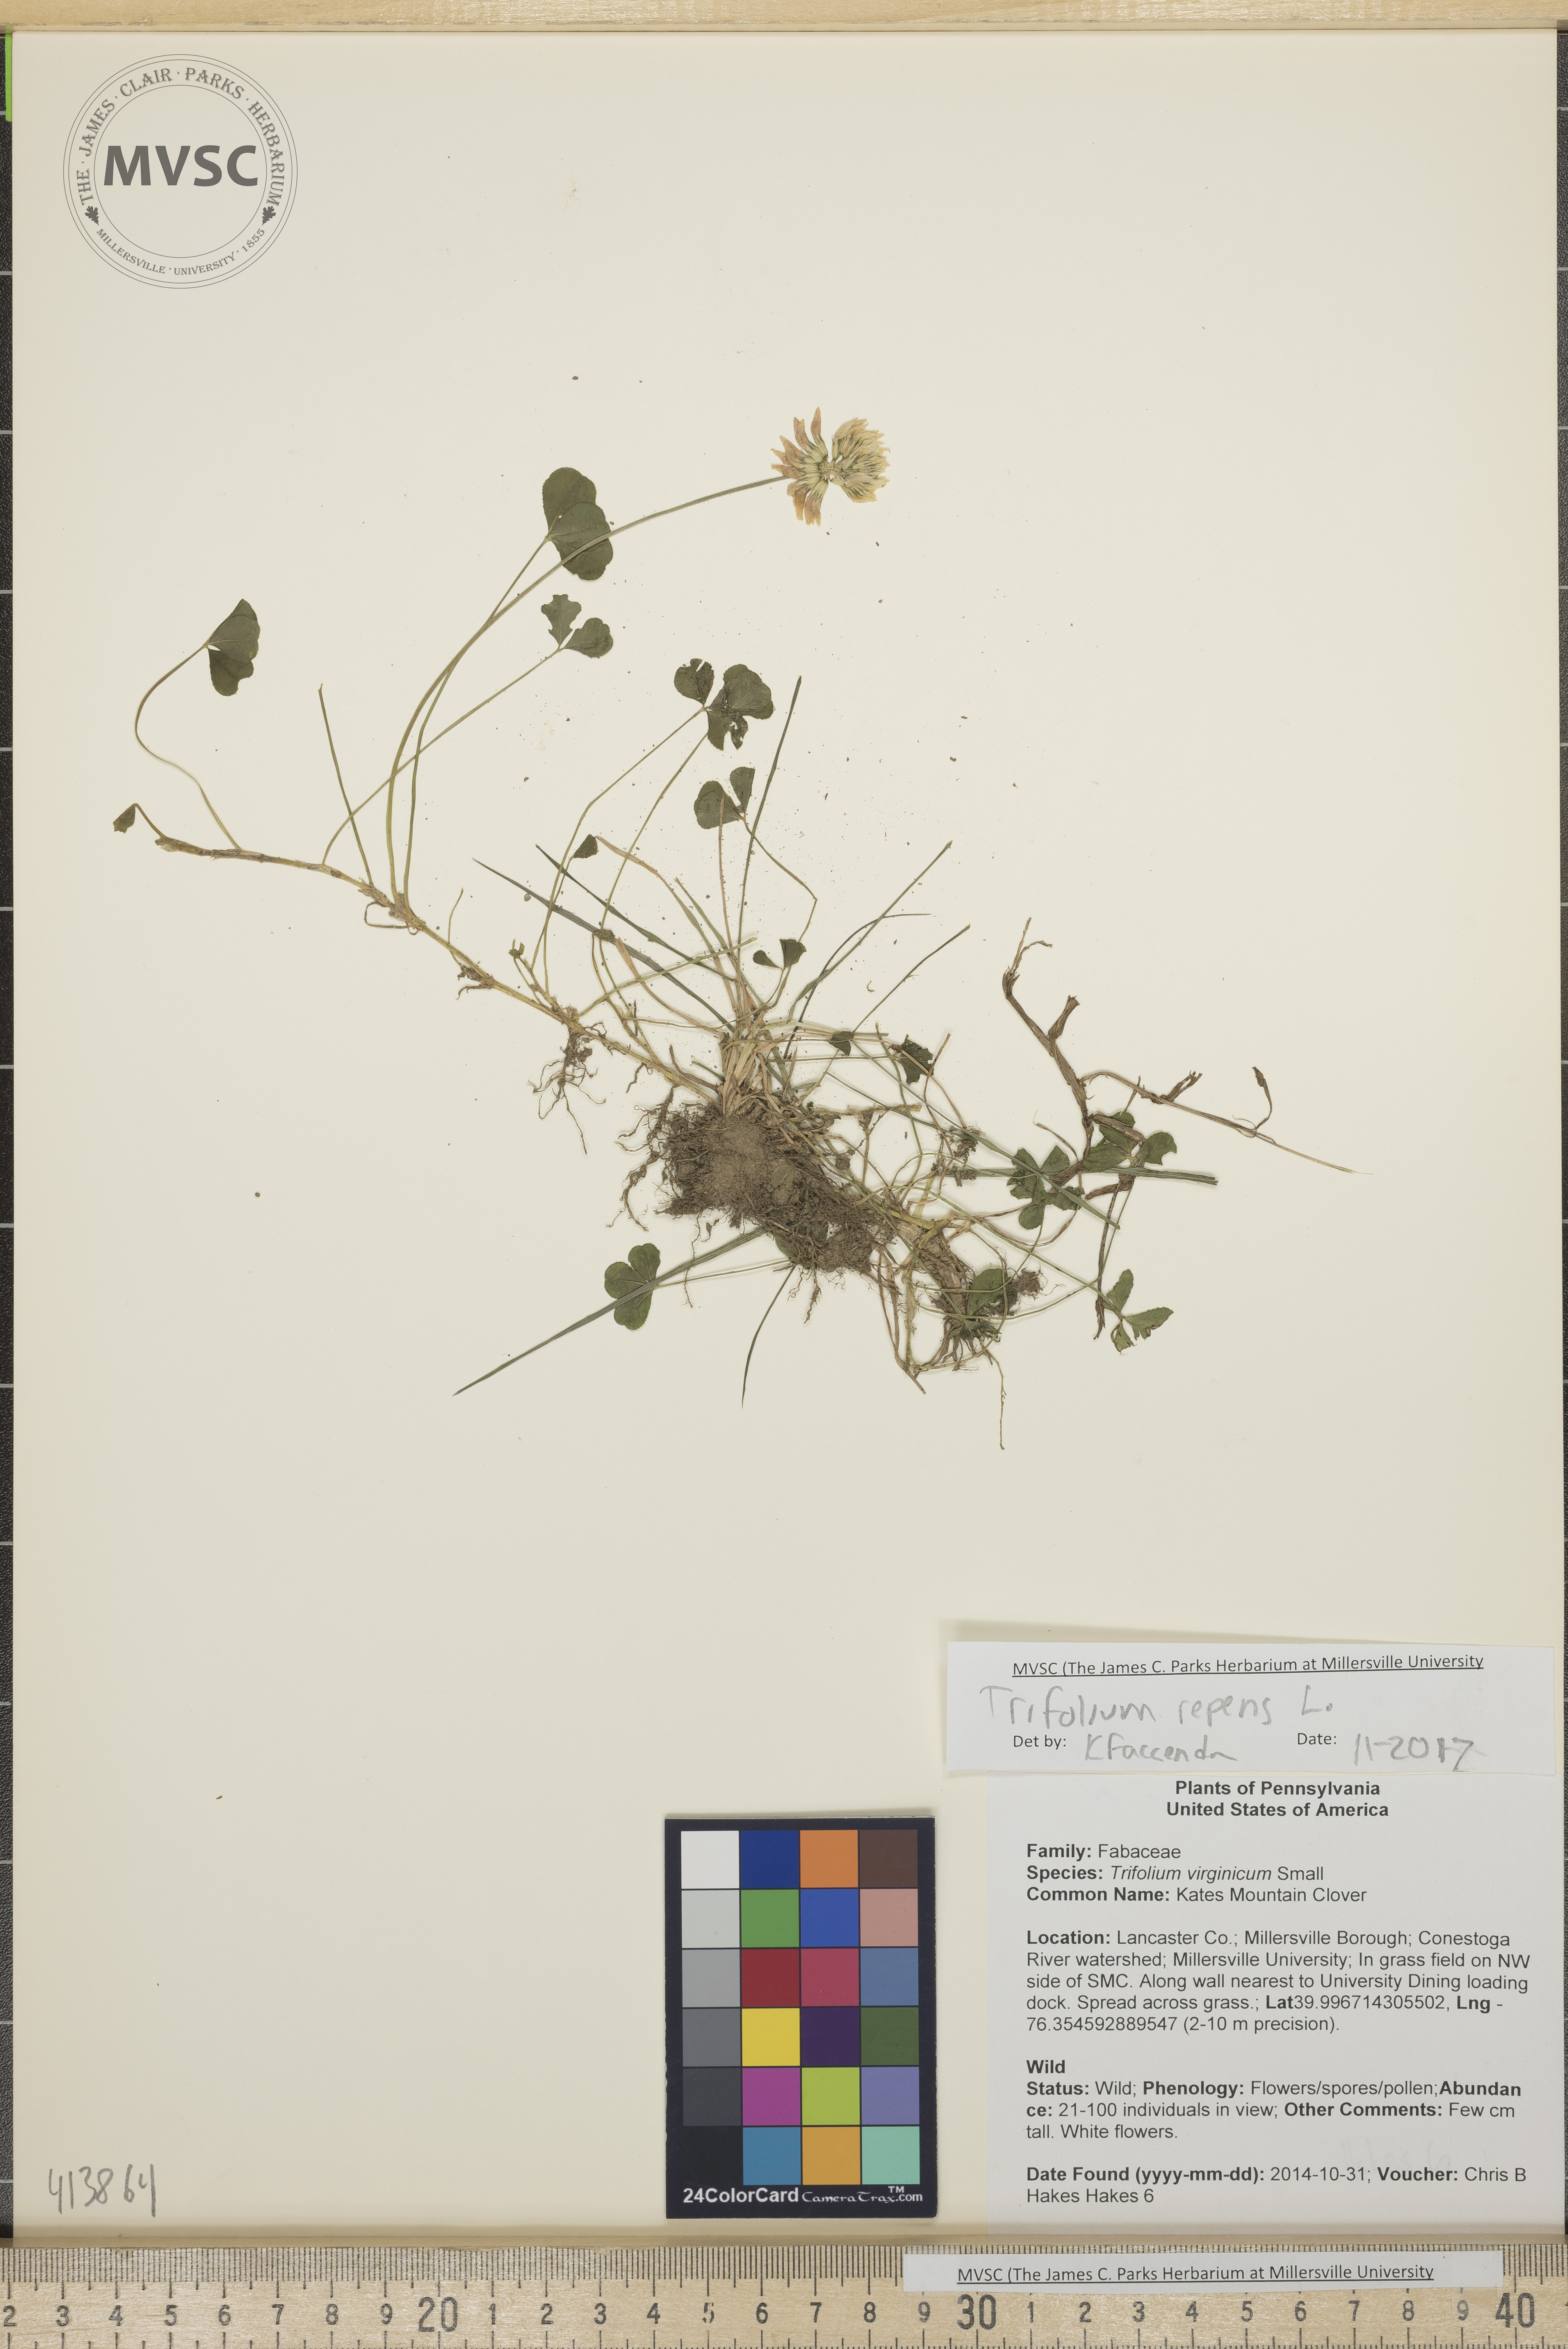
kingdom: Plantae
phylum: Tracheophyta
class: Magnoliopsida
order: Fabales
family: Fabaceae
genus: Trifolium
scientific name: Trifolium repens
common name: White clover
